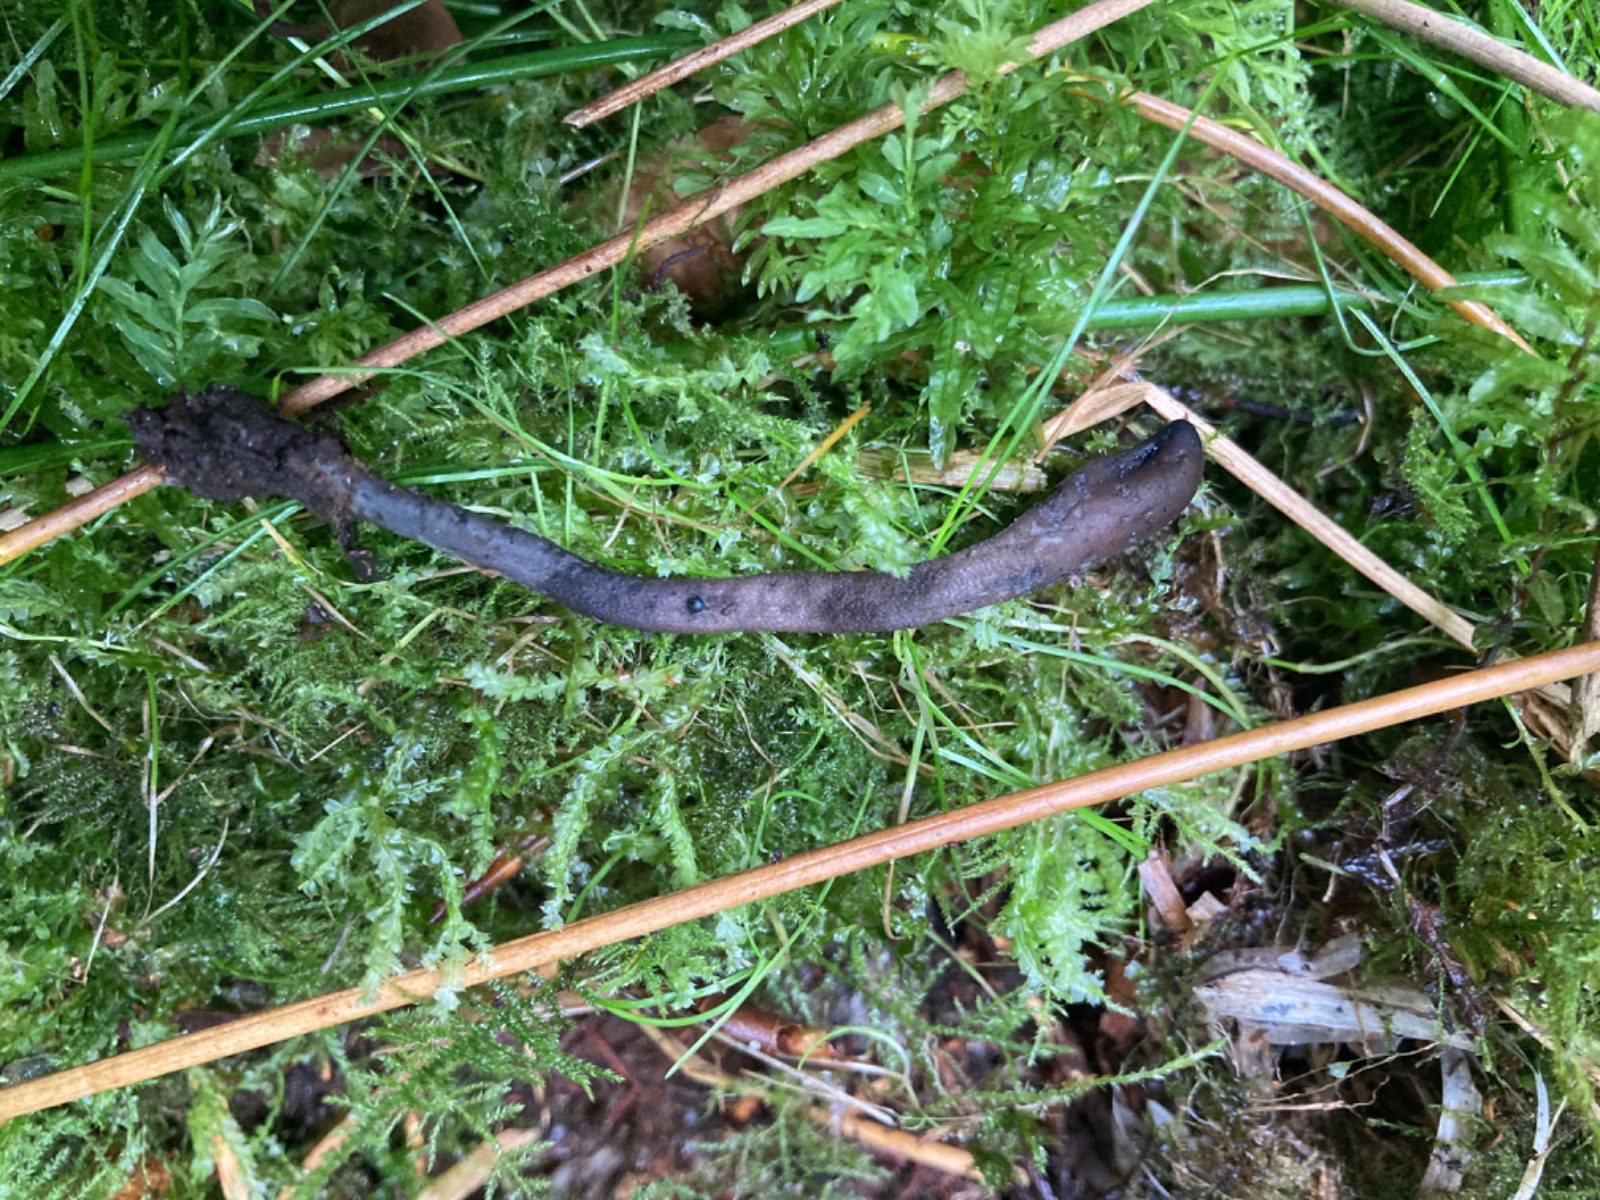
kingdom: Fungi
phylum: Ascomycota
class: Geoglossomycetes
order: Geoglossales
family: Geoglossaceae
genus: Geoglossum
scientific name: Geoglossum fallax
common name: småskællet jordtunge
